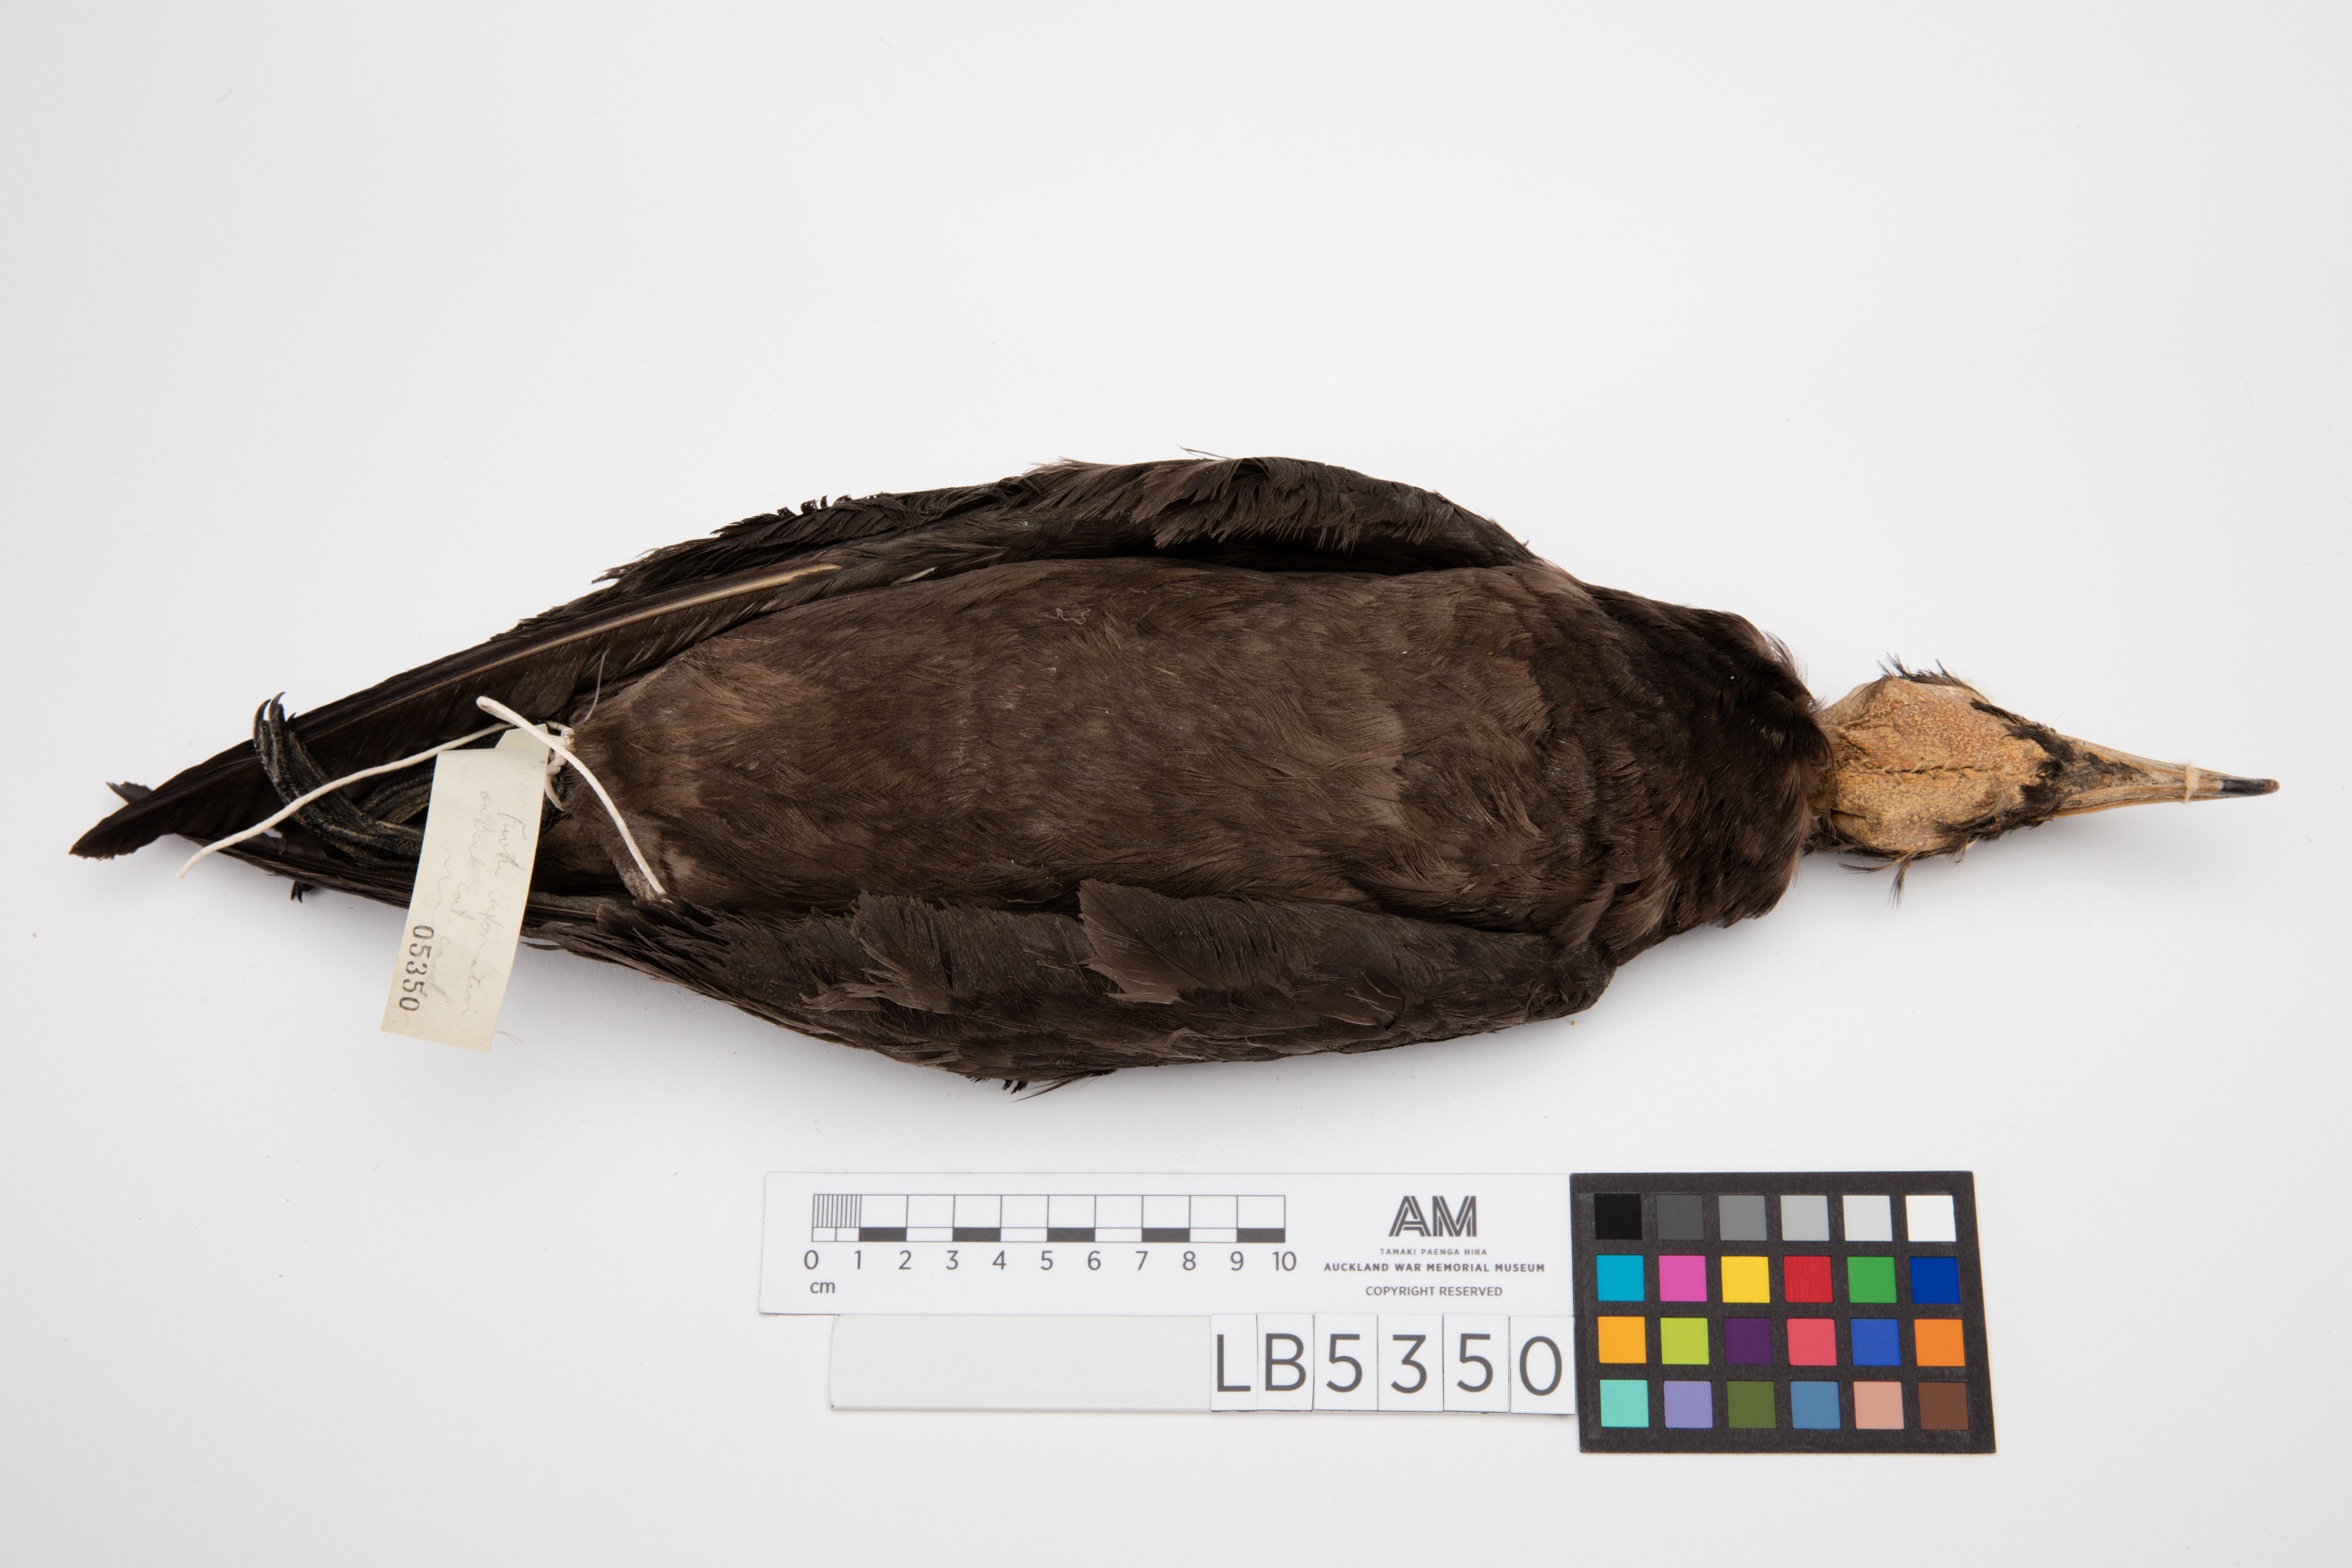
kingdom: Animalia
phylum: Chordata
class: Aves
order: Procellariiformes
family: Procellariidae
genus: Procellaria
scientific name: Procellaria parkinsoni
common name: Black petrel
